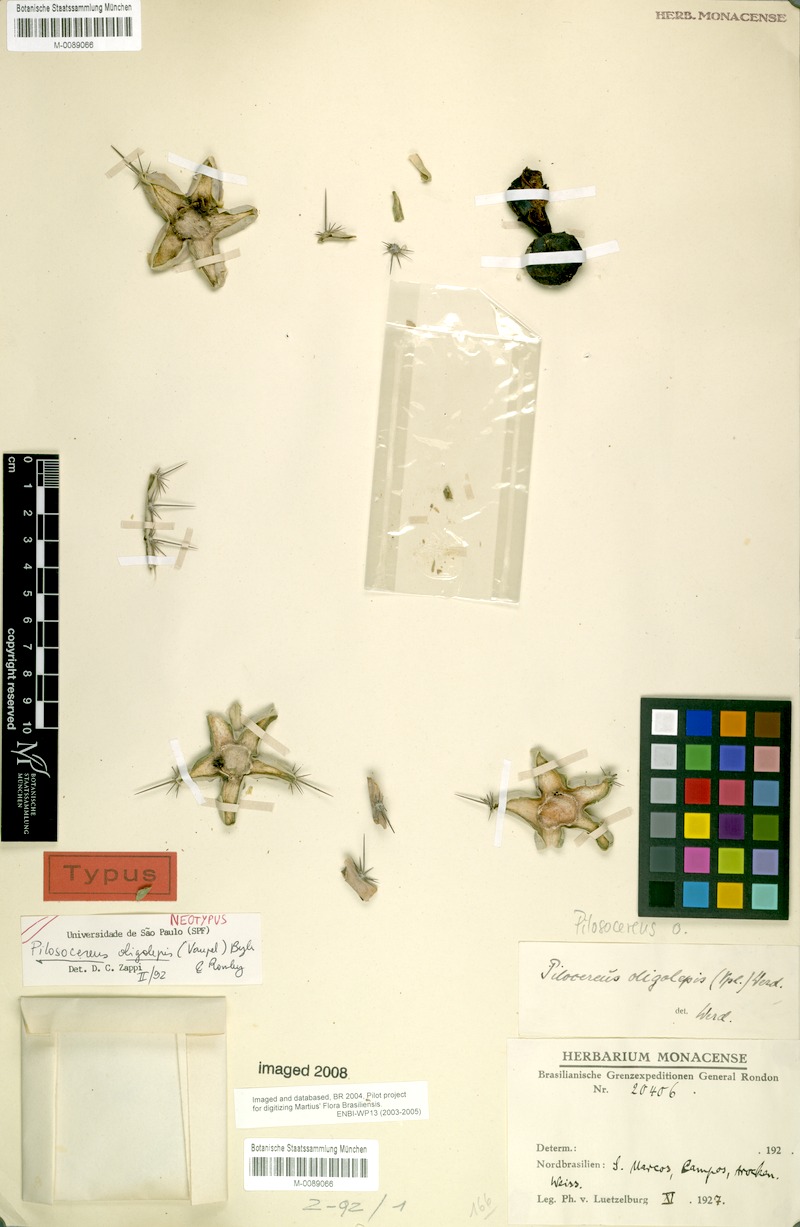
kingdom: Plantae
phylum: Tracheophyta
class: Magnoliopsida
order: Caryophyllales
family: Cactaceae
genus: Pilosocereus
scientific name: Pilosocereus oligolepis
